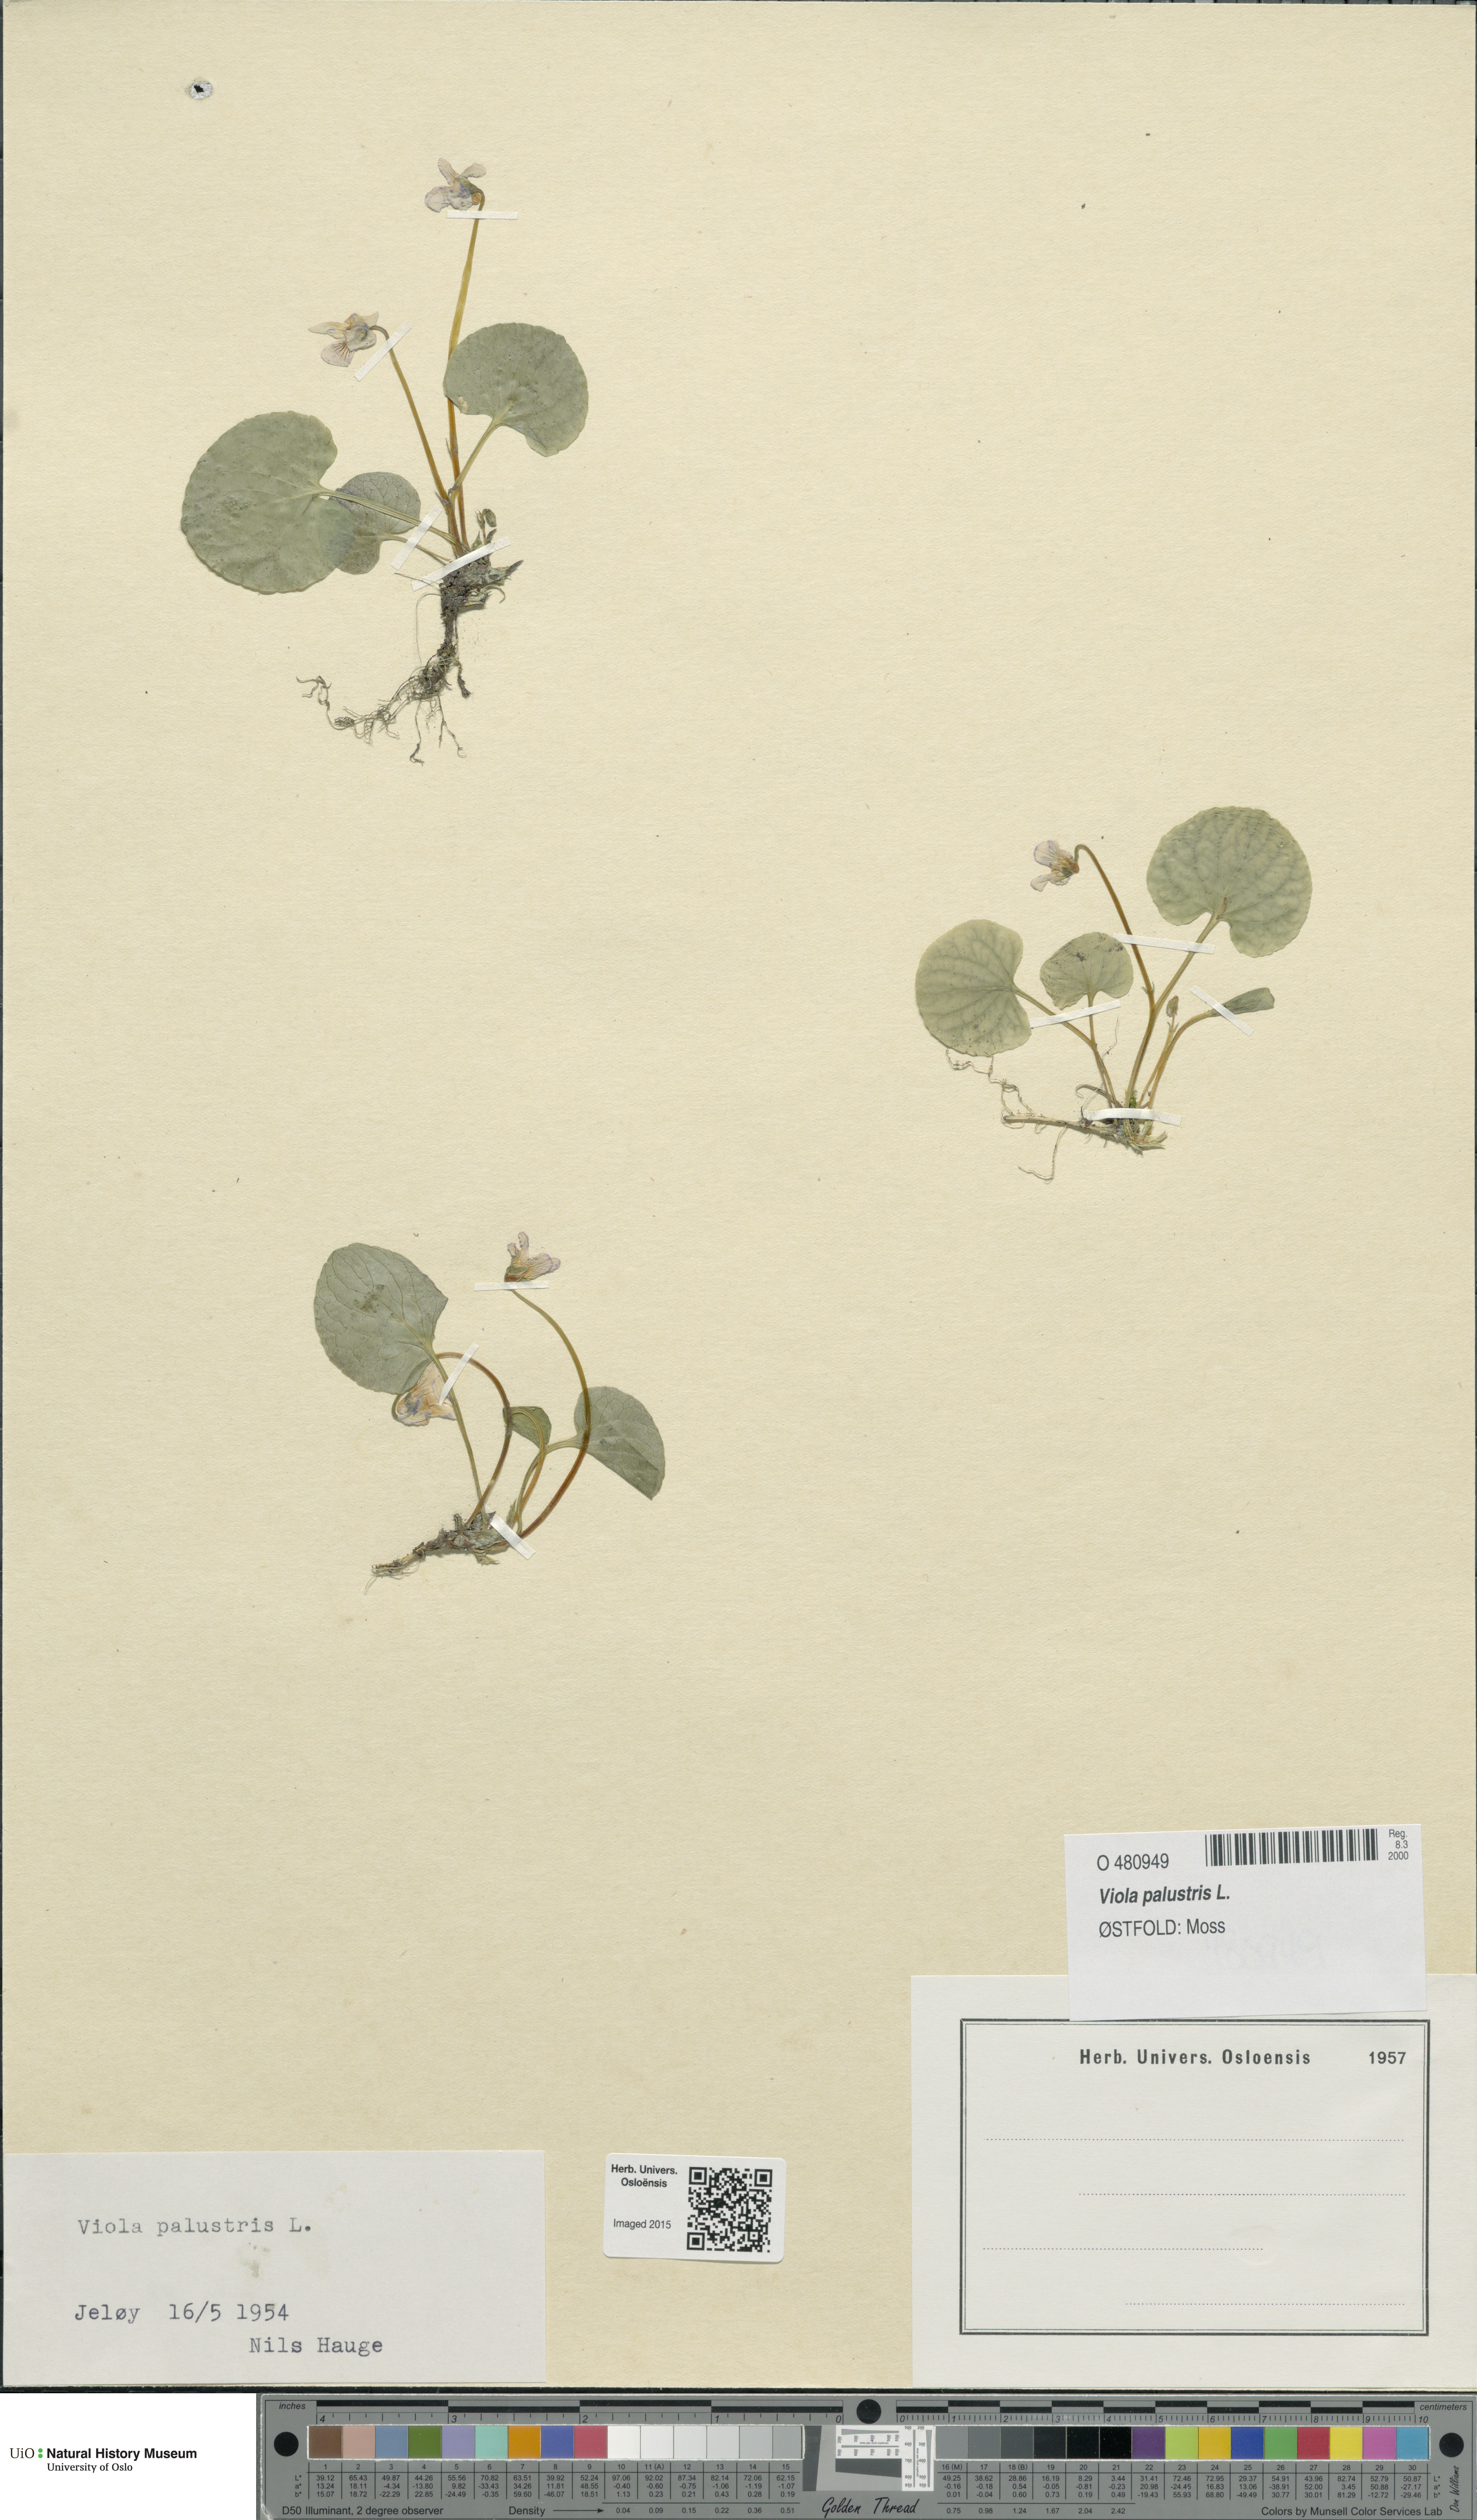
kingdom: Plantae
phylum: Tracheophyta
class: Magnoliopsida
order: Malpighiales
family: Violaceae
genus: Viola
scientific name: Viola palustris
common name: Marsh violet
